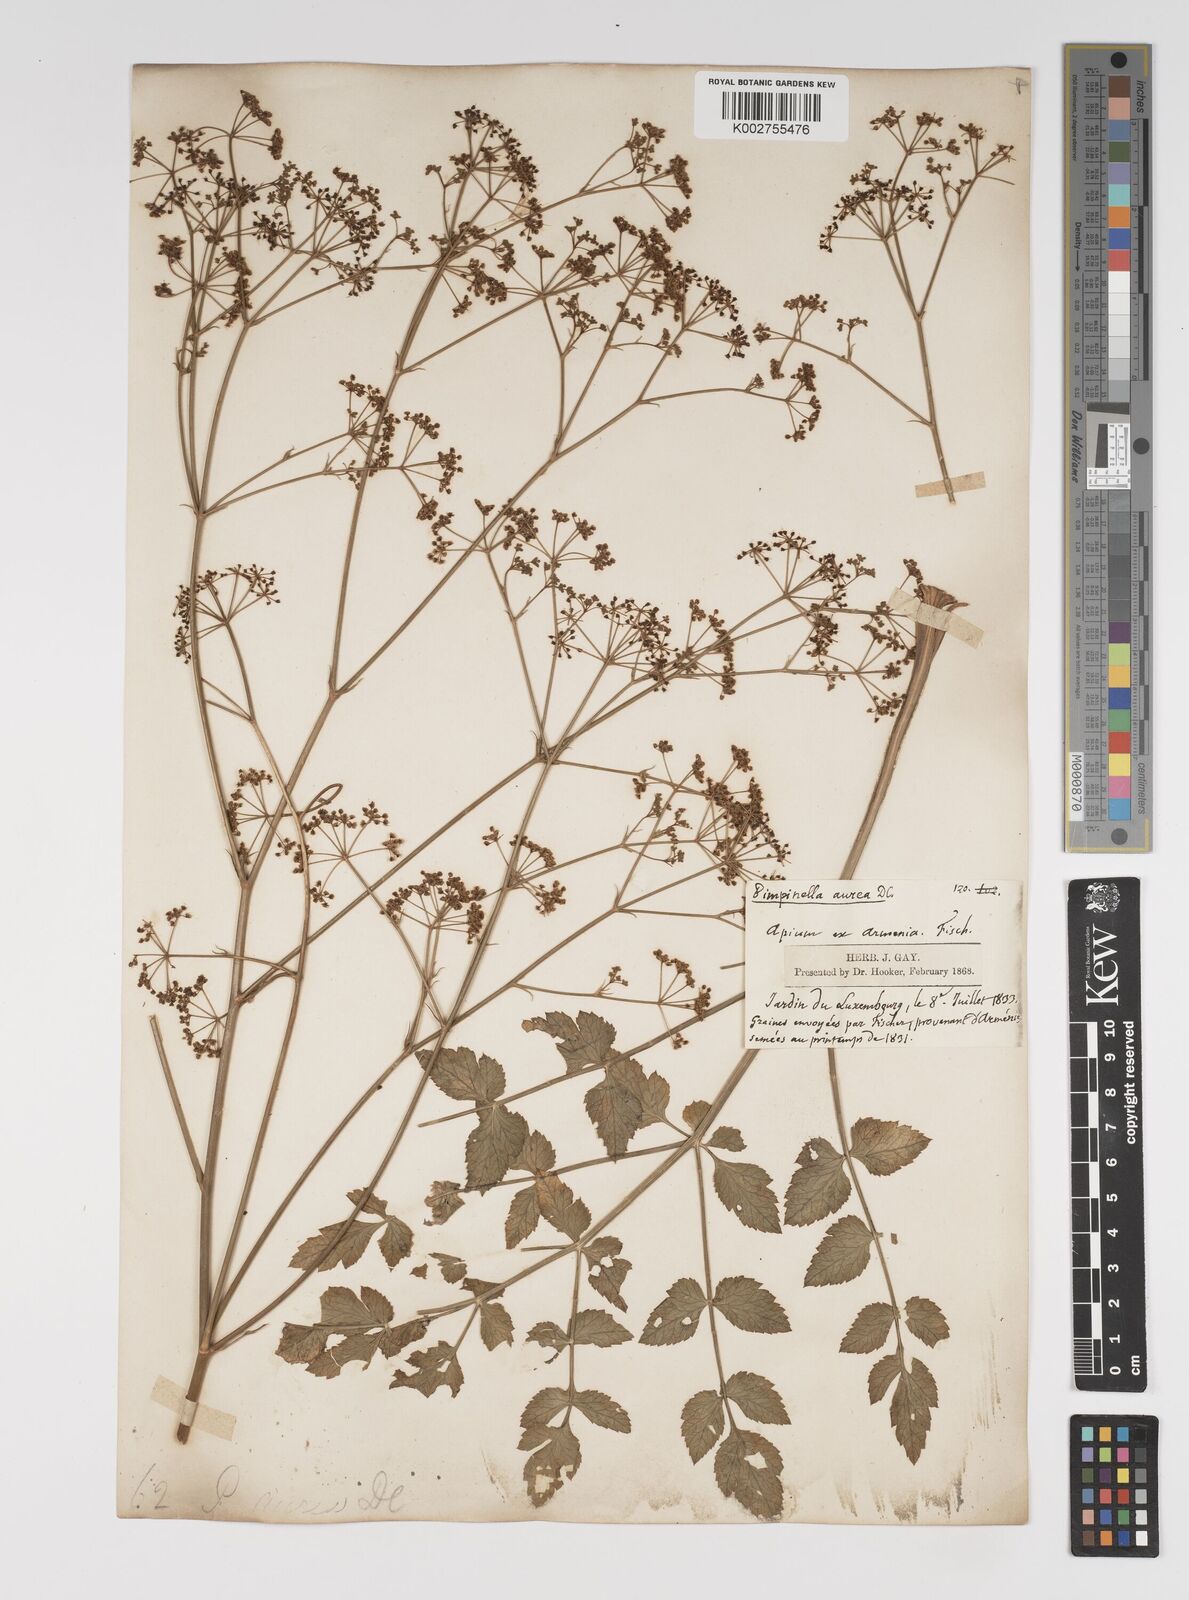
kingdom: Plantae
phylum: Tracheophyta
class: Magnoliopsida
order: Apiales
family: Apiaceae
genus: Pimpinella
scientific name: Pimpinella aurea
